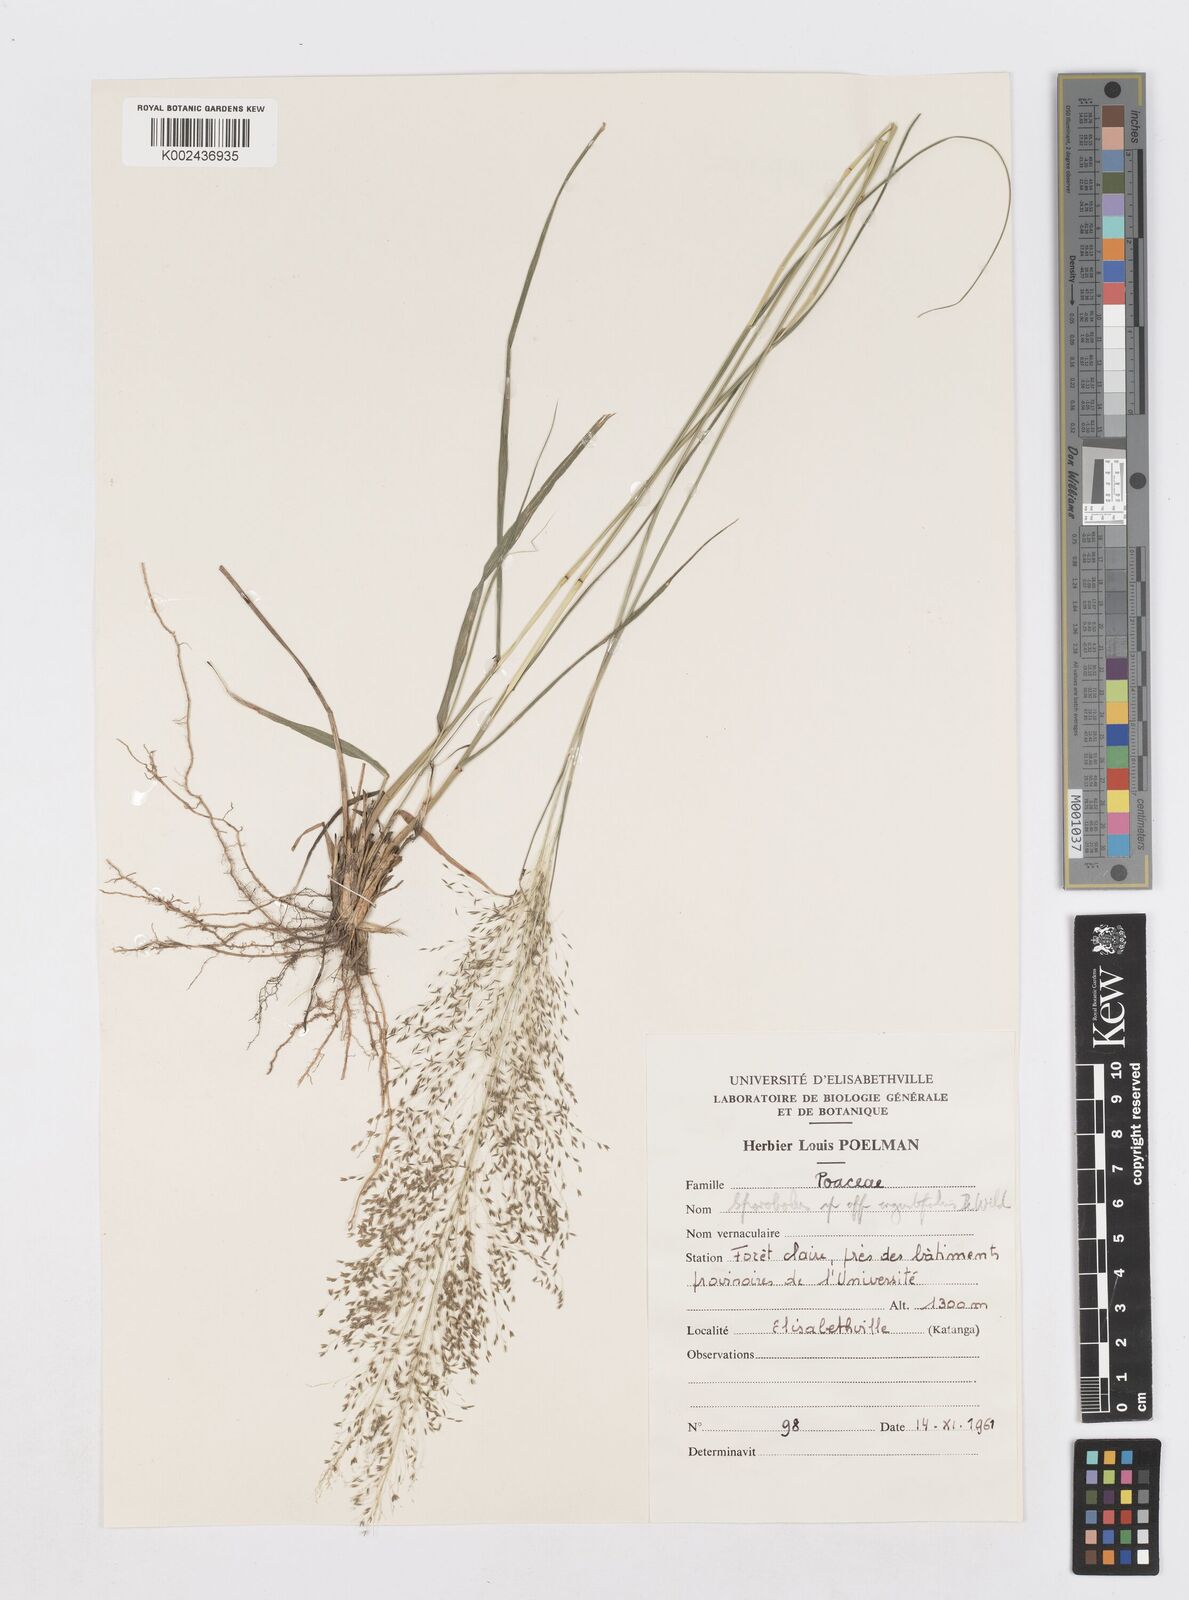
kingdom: Plantae
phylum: Tracheophyta
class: Liliopsida
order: Poales
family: Poaceae
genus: Sporobolus
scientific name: Sporobolus myrianthus
